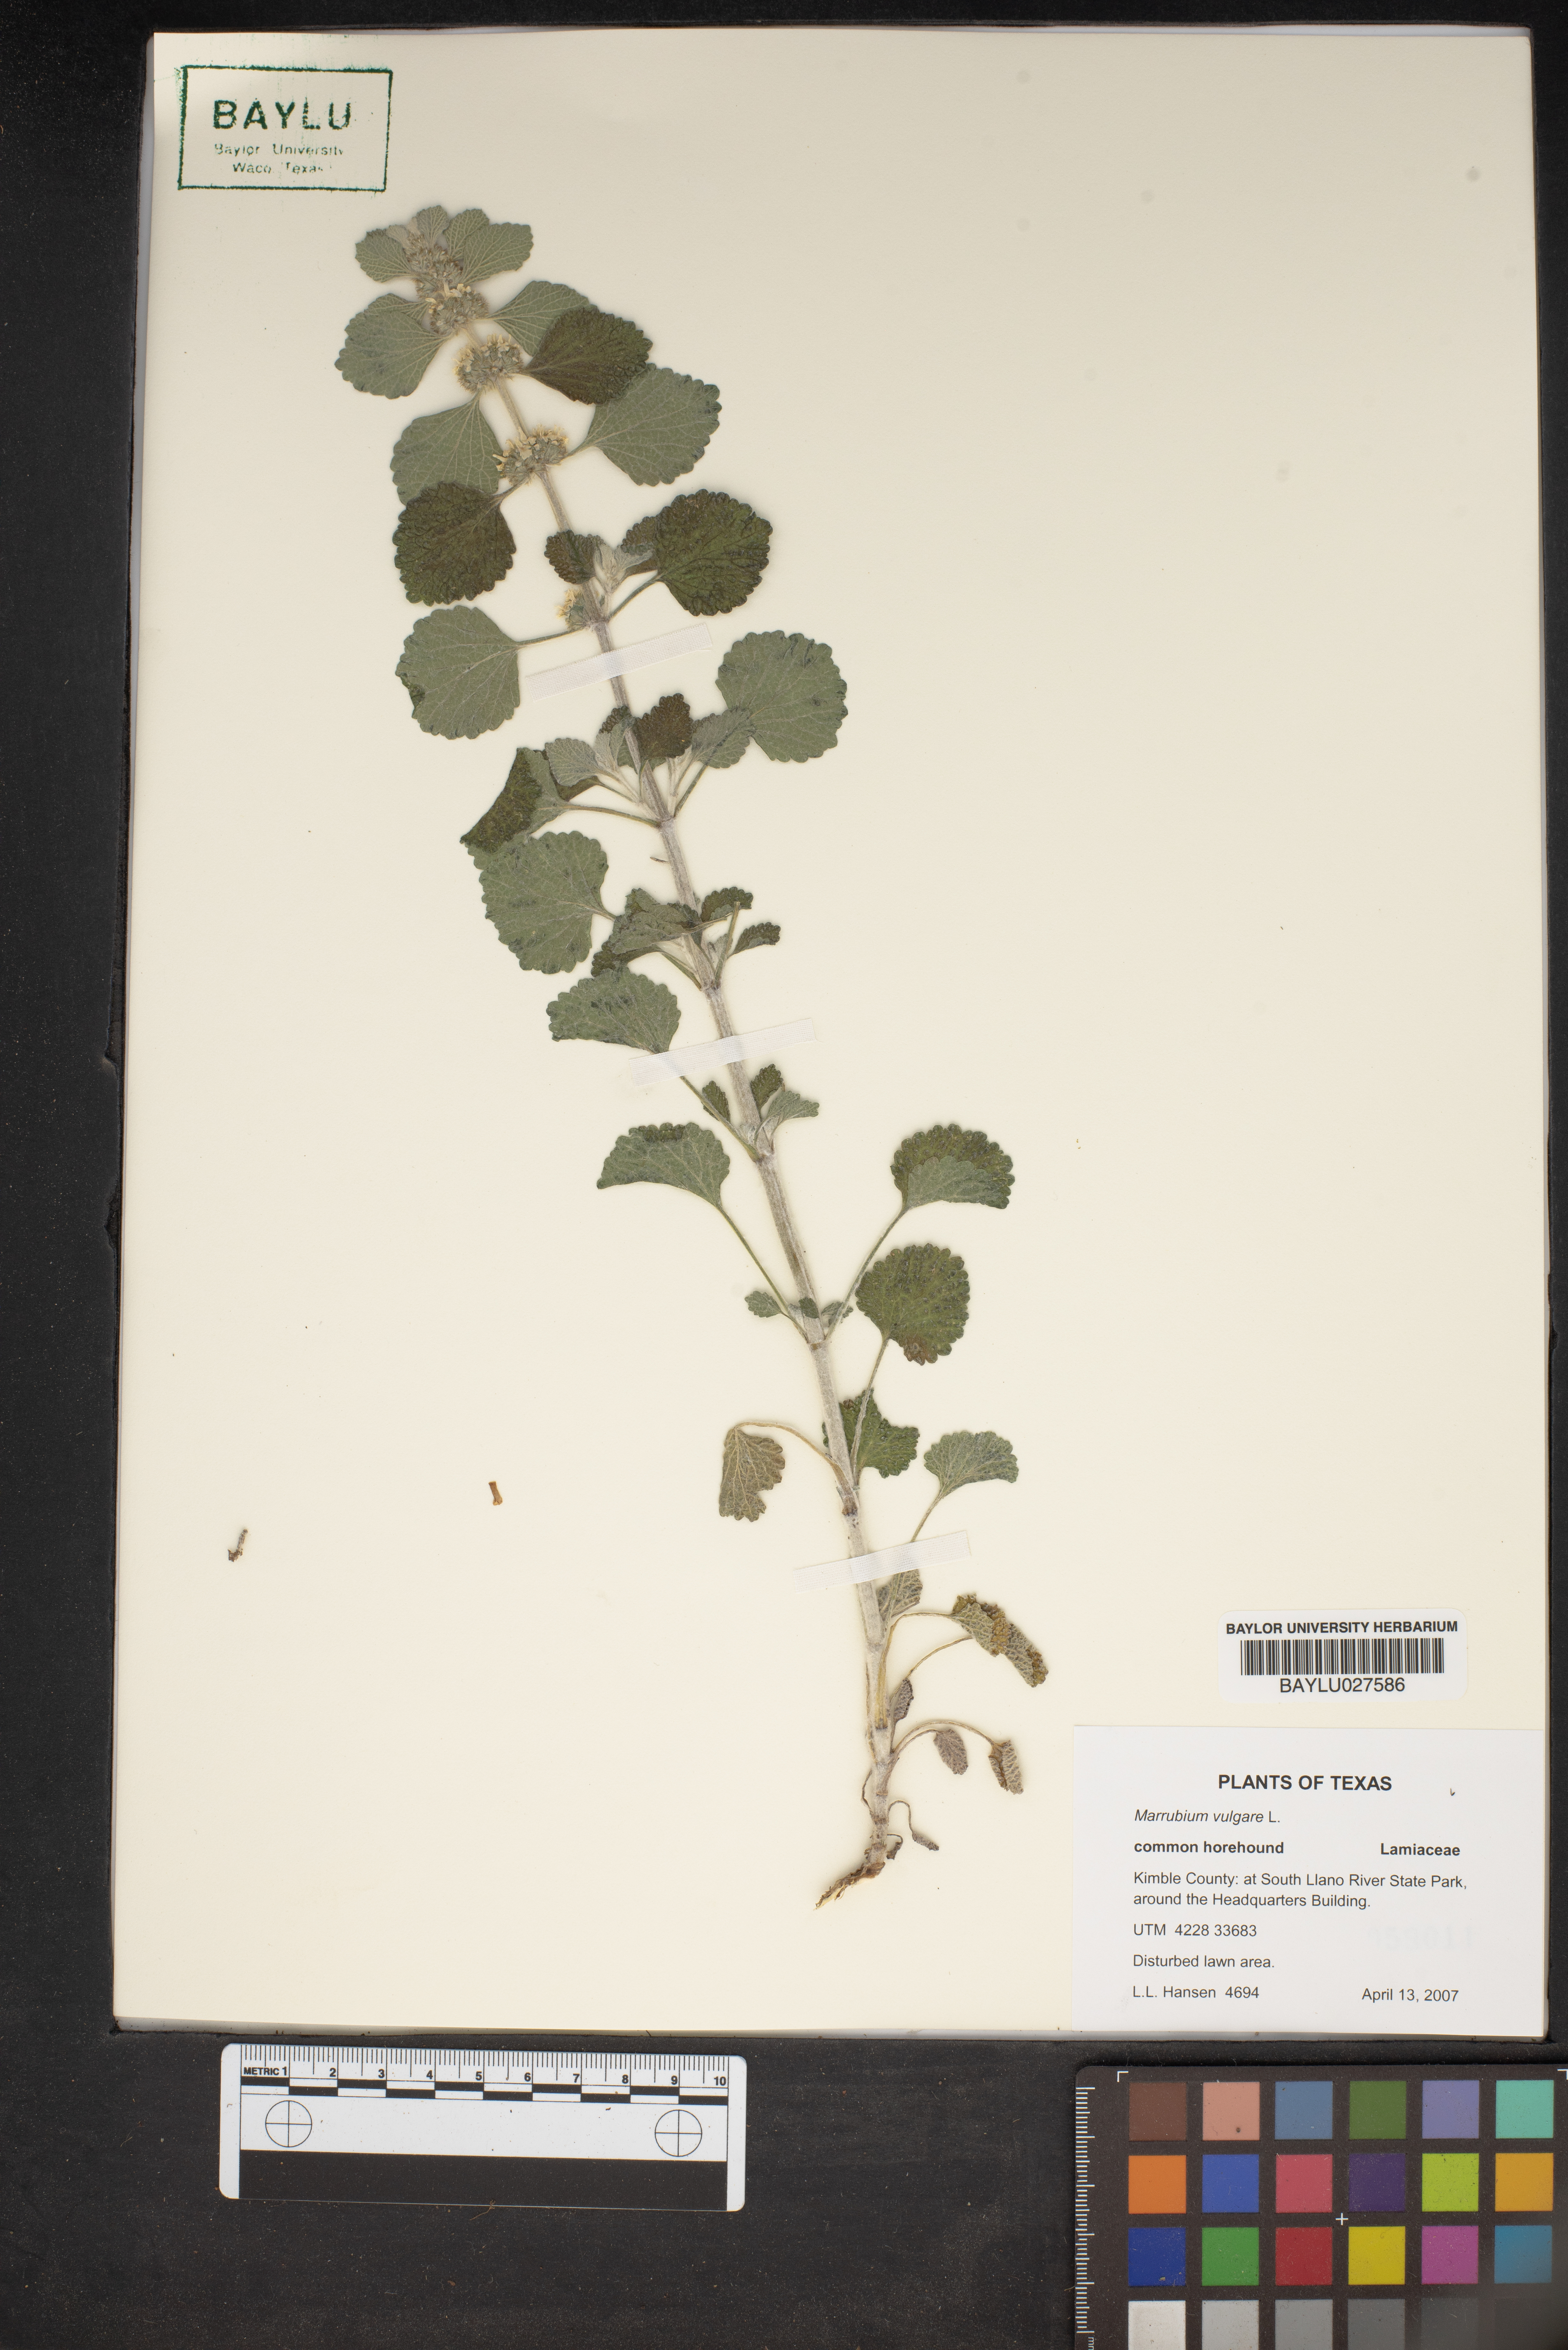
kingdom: Plantae
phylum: Tracheophyta
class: Magnoliopsida
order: Lamiales
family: Lamiaceae
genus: Marrubium
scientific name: Marrubium vulgare
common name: Horehound
